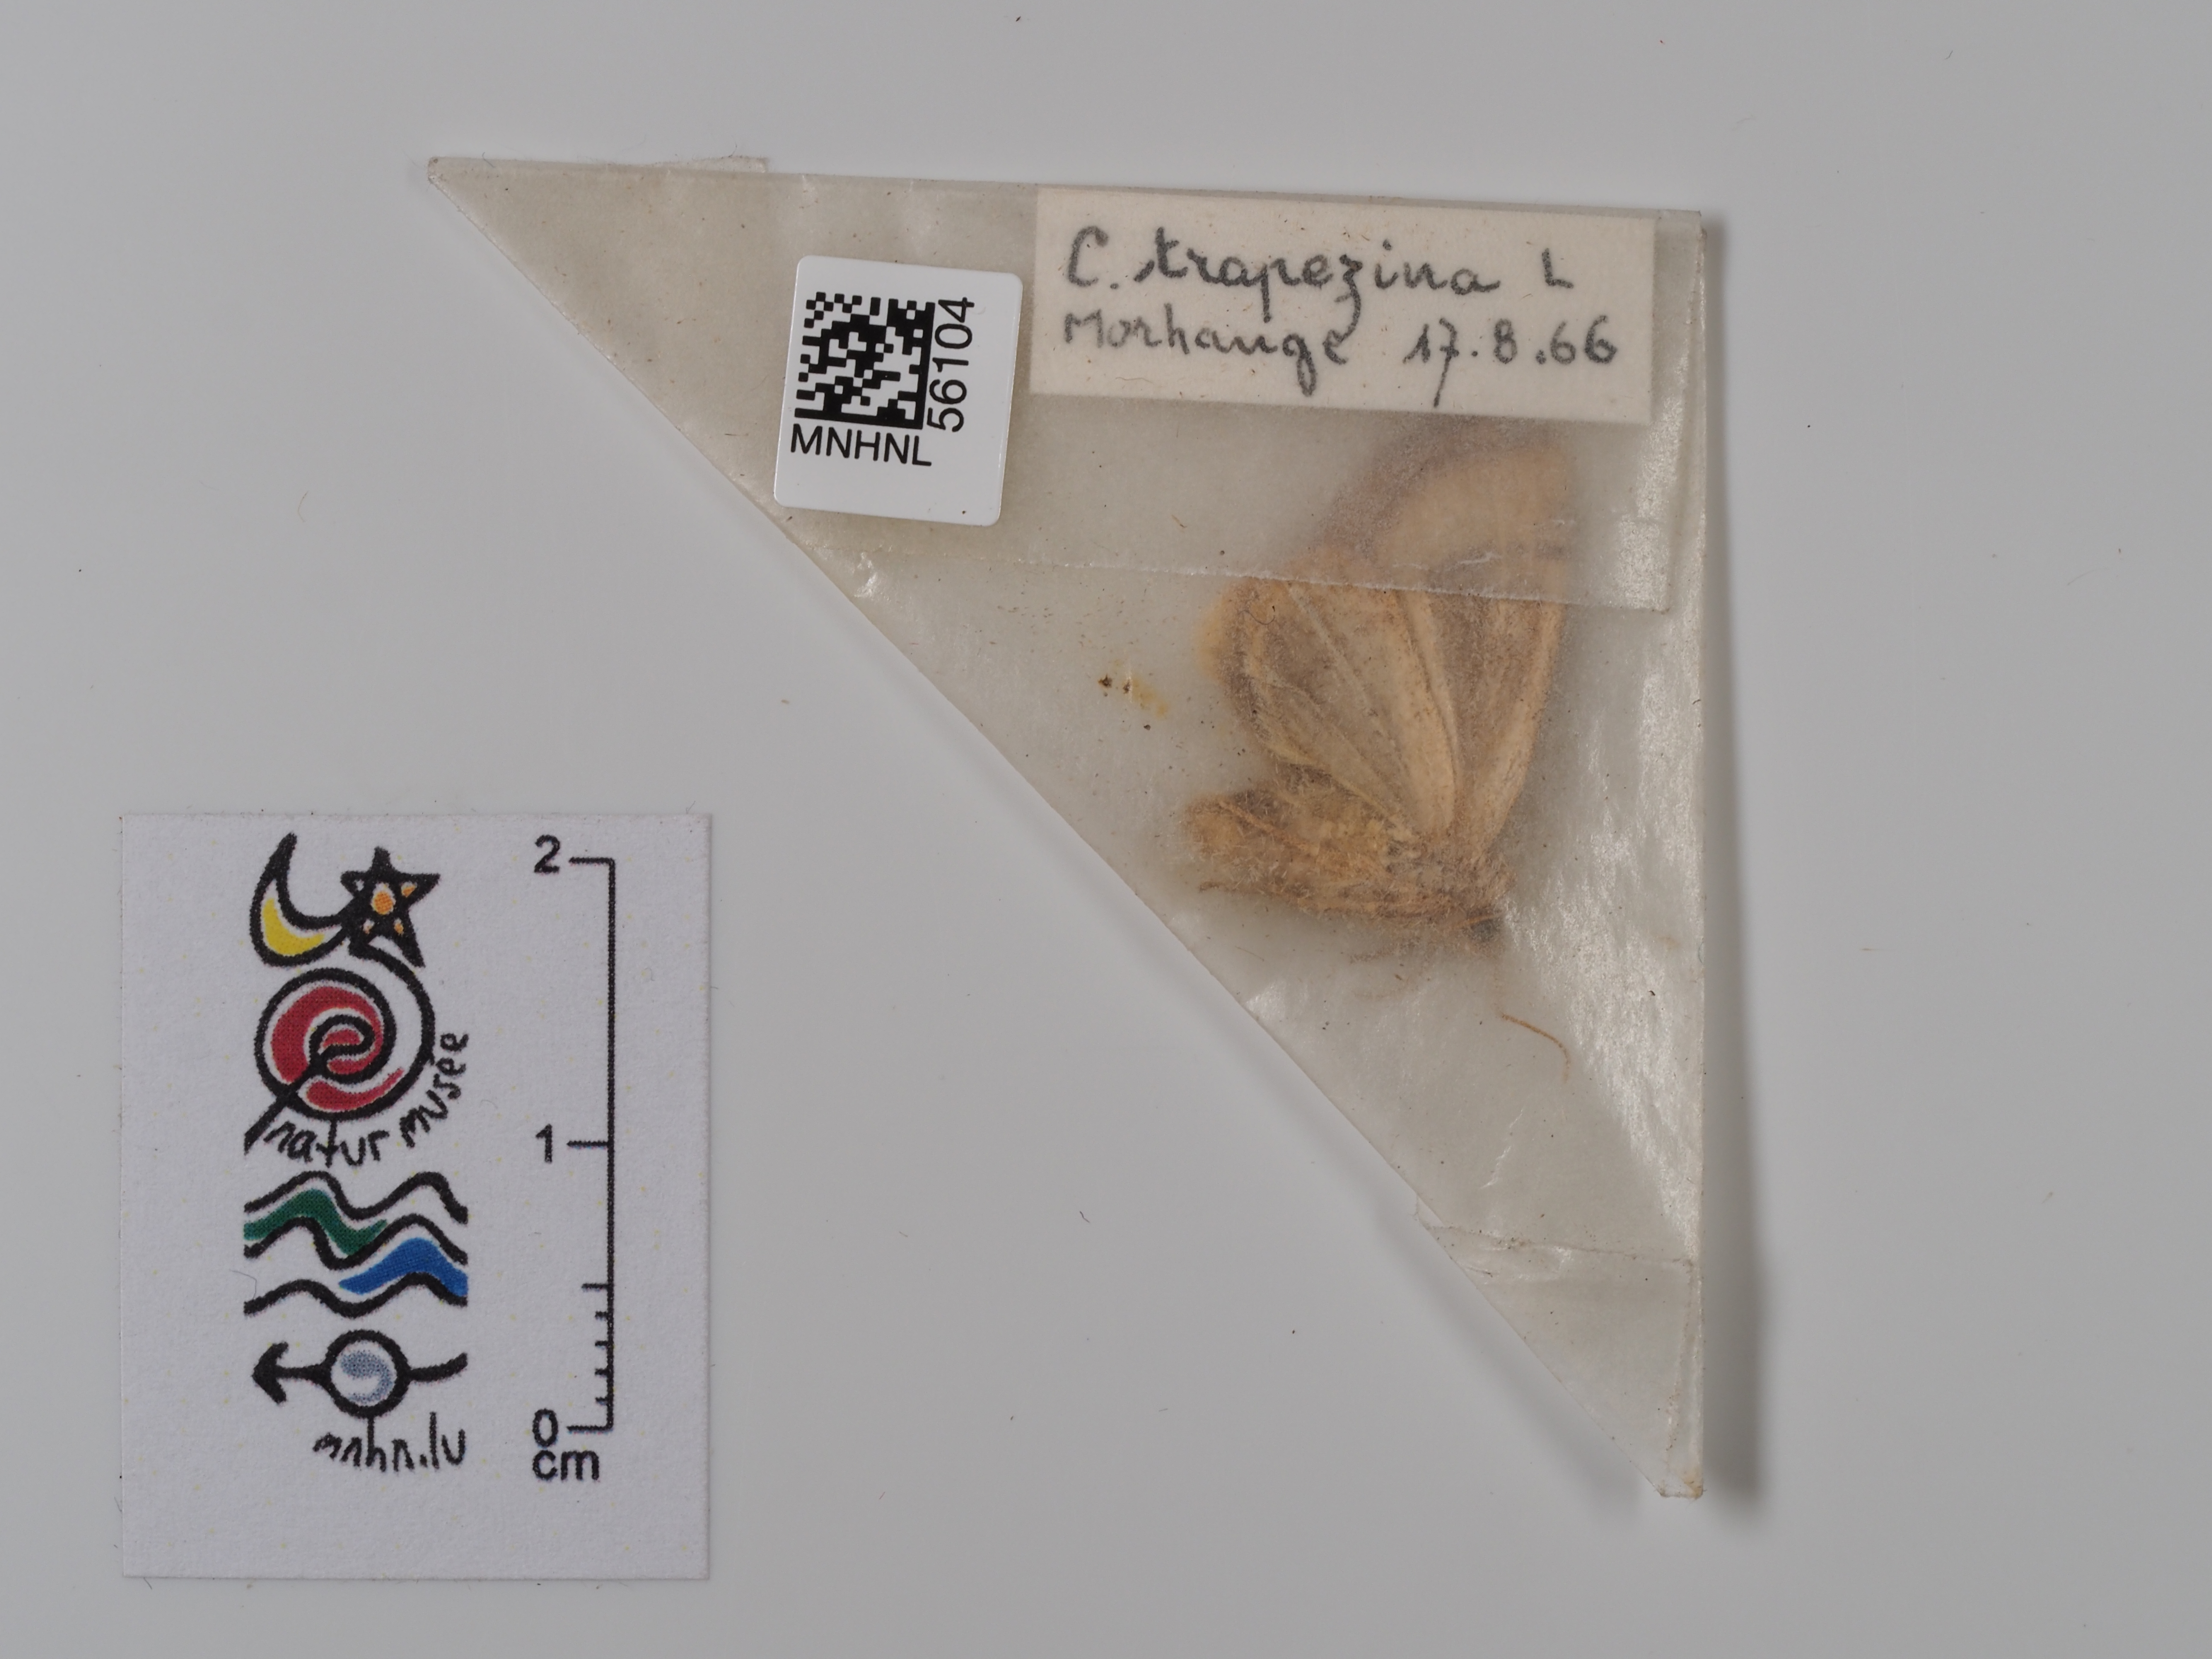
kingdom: Animalia
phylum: Arthropoda
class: Insecta
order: Lepidoptera
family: Noctuidae
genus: Cosmia
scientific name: Cosmia trapezina
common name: Dun-bar
